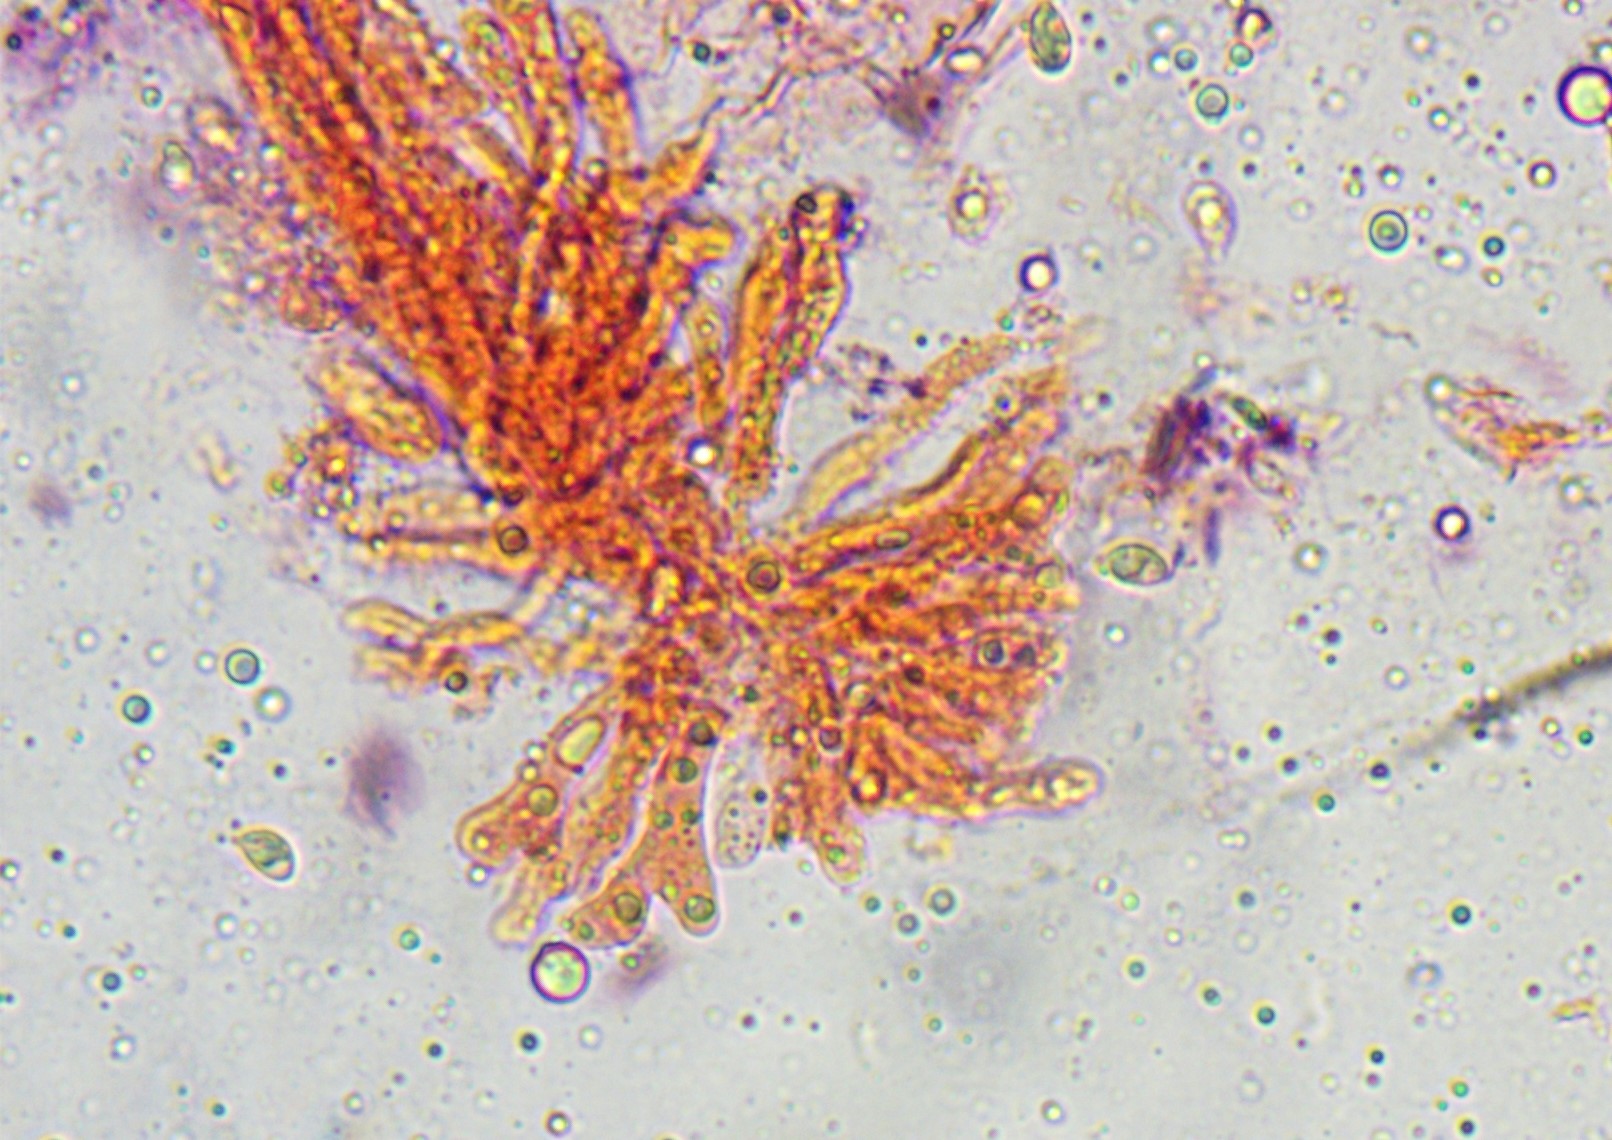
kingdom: Fungi
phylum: Basidiomycota
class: Agaricomycetes
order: Agaricales
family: Tricholomataceae
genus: Delicatula
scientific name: Delicatula integrella
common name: slørhuesvamp
